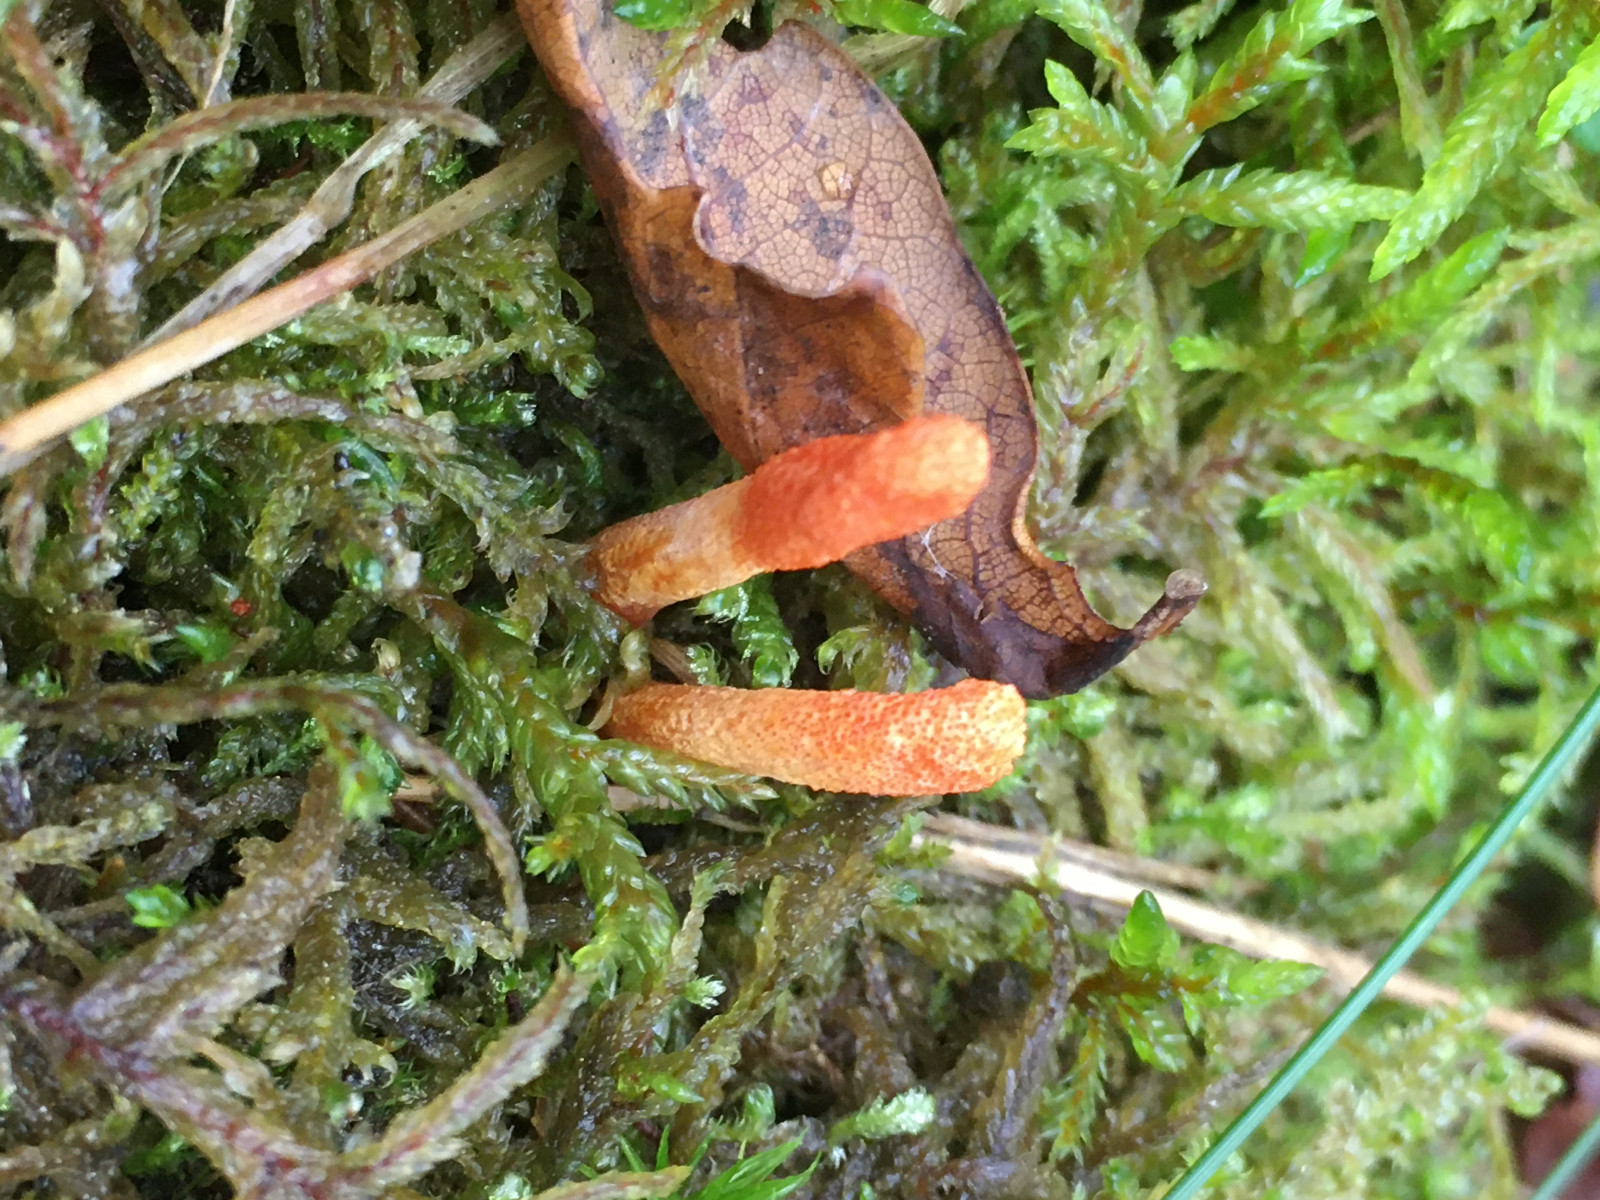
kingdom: Fungi
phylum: Ascomycota
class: Sordariomycetes
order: Hypocreales
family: Cordycipitaceae
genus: Cordyceps
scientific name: Cordyceps militaris
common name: puppe-snyltekølle
